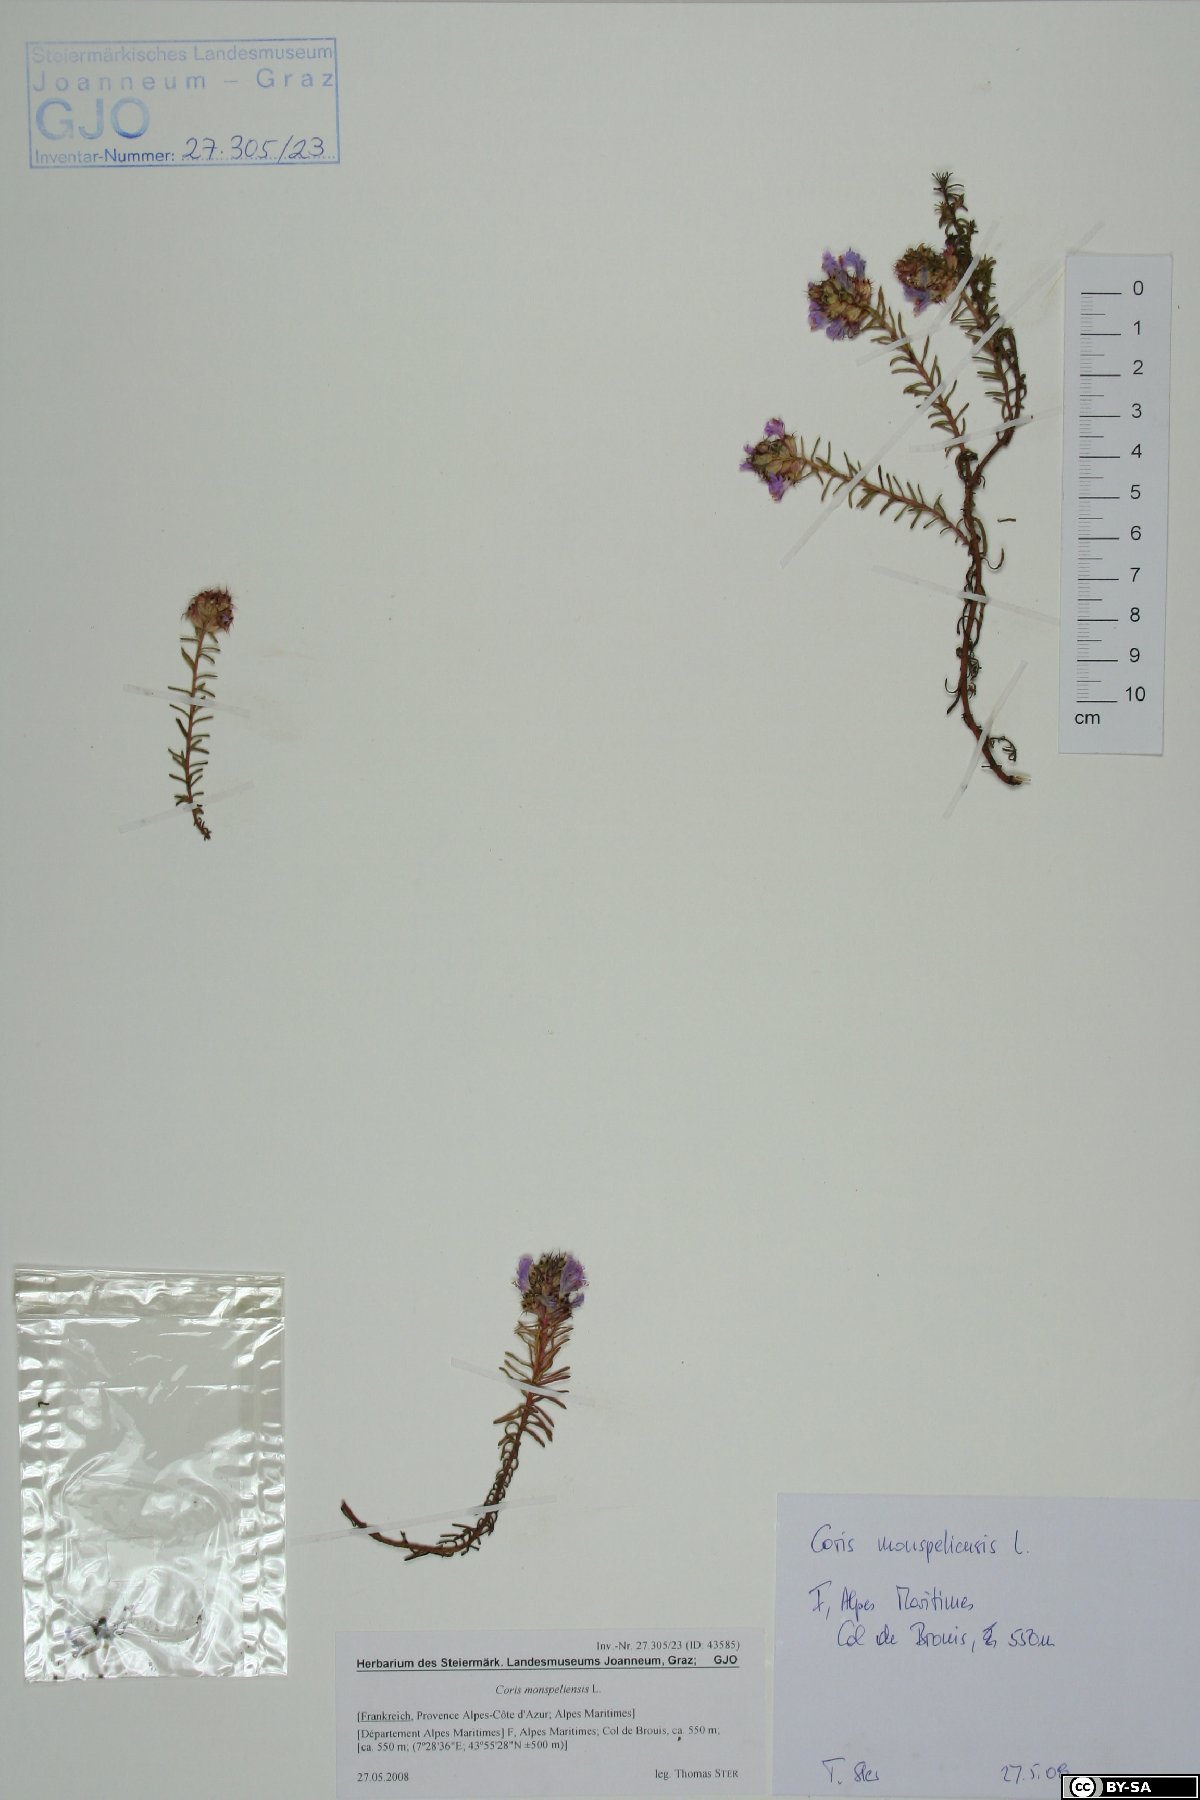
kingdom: Plantae
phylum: Tracheophyta
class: Magnoliopsida
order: Ericales
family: Primulaceae
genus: Coris
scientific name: Coris monspeliensis
